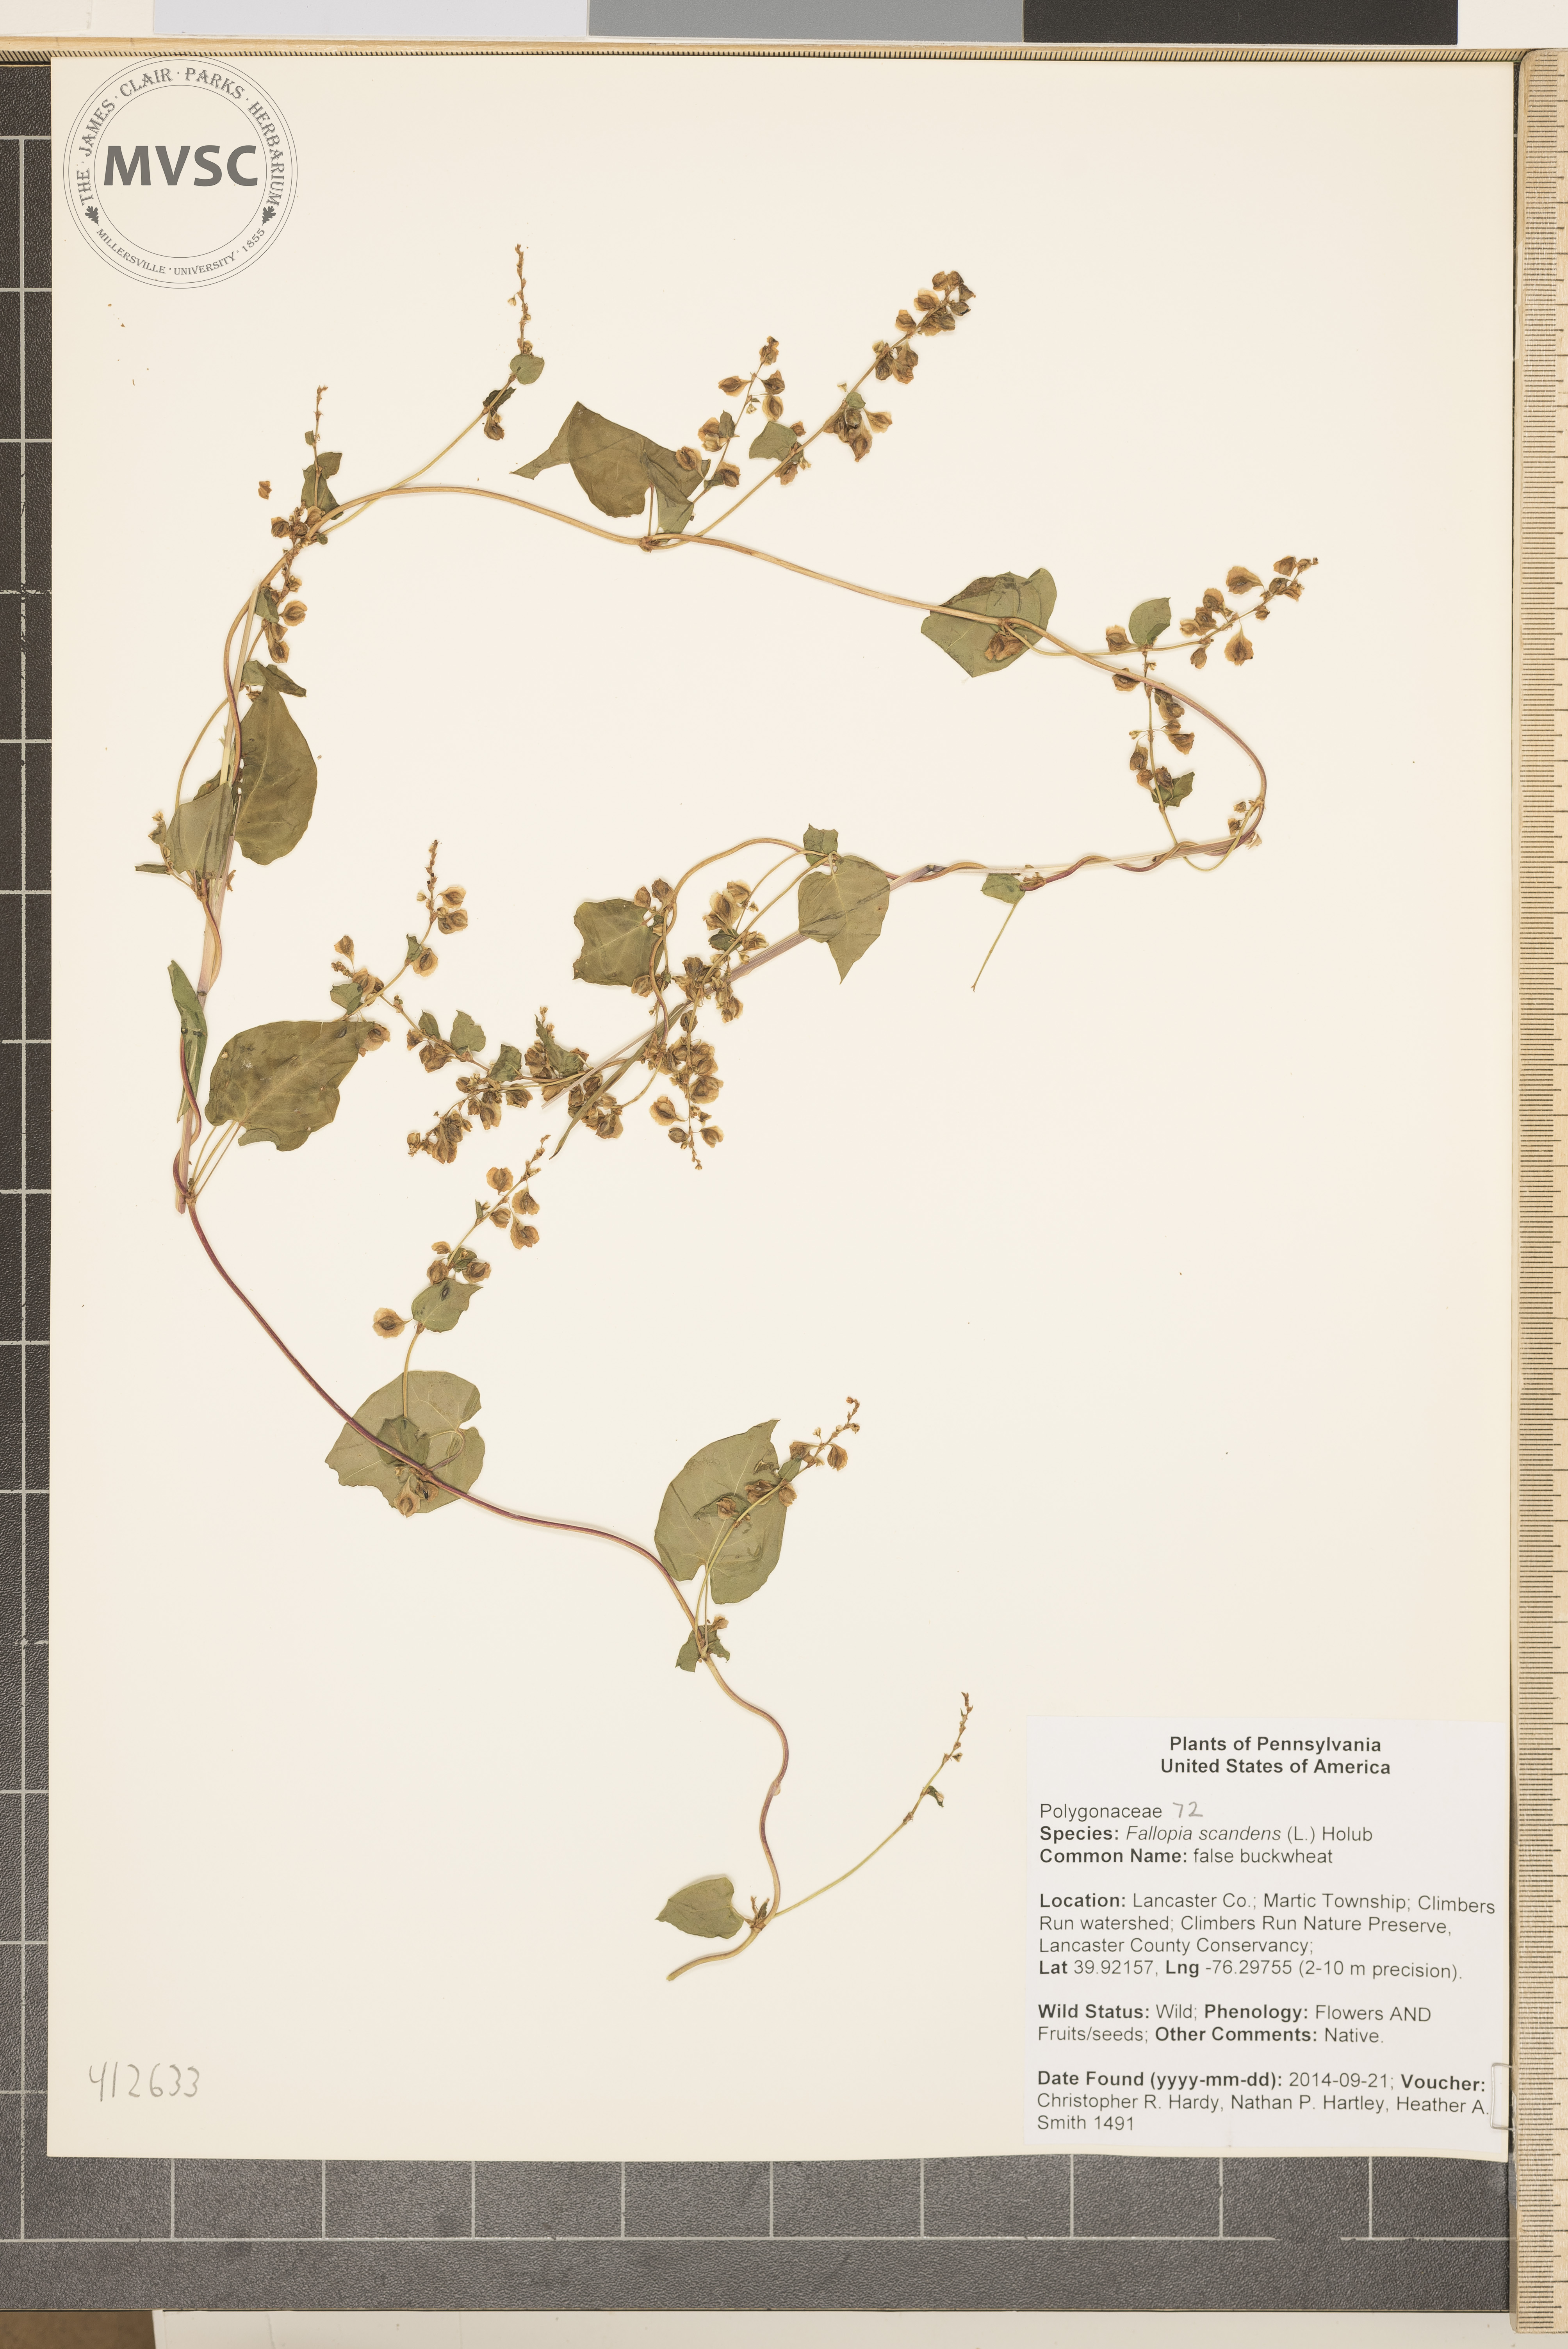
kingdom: Plantae
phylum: Tracheophyta
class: Magnoliopsida
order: Caryophyllales
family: Polygonaceae
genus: Fallopia
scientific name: Fallopia scandens
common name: climbing false buckwheat
